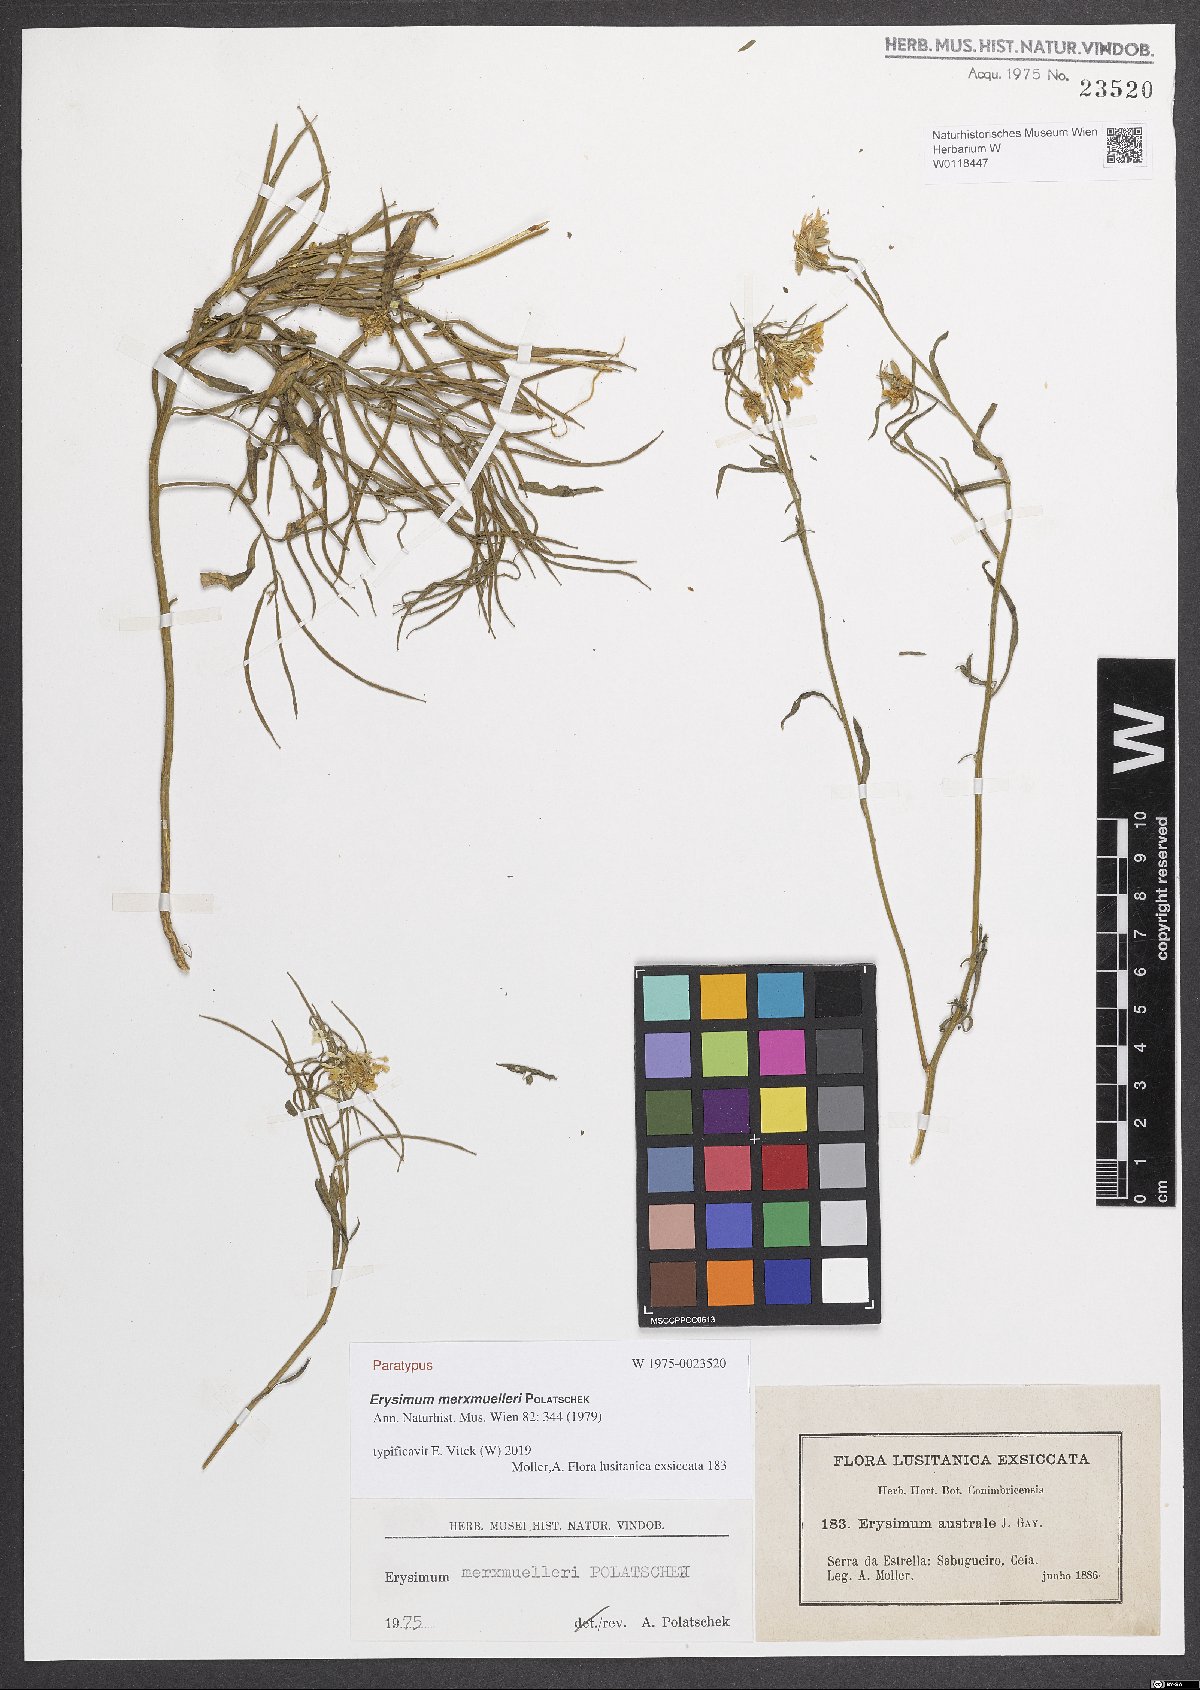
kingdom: Plantae
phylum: Tracheophyta
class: Magnoliopsida
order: Brassicales
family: Brassicaceae
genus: Erysimum
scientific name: Erysimum nevadense
